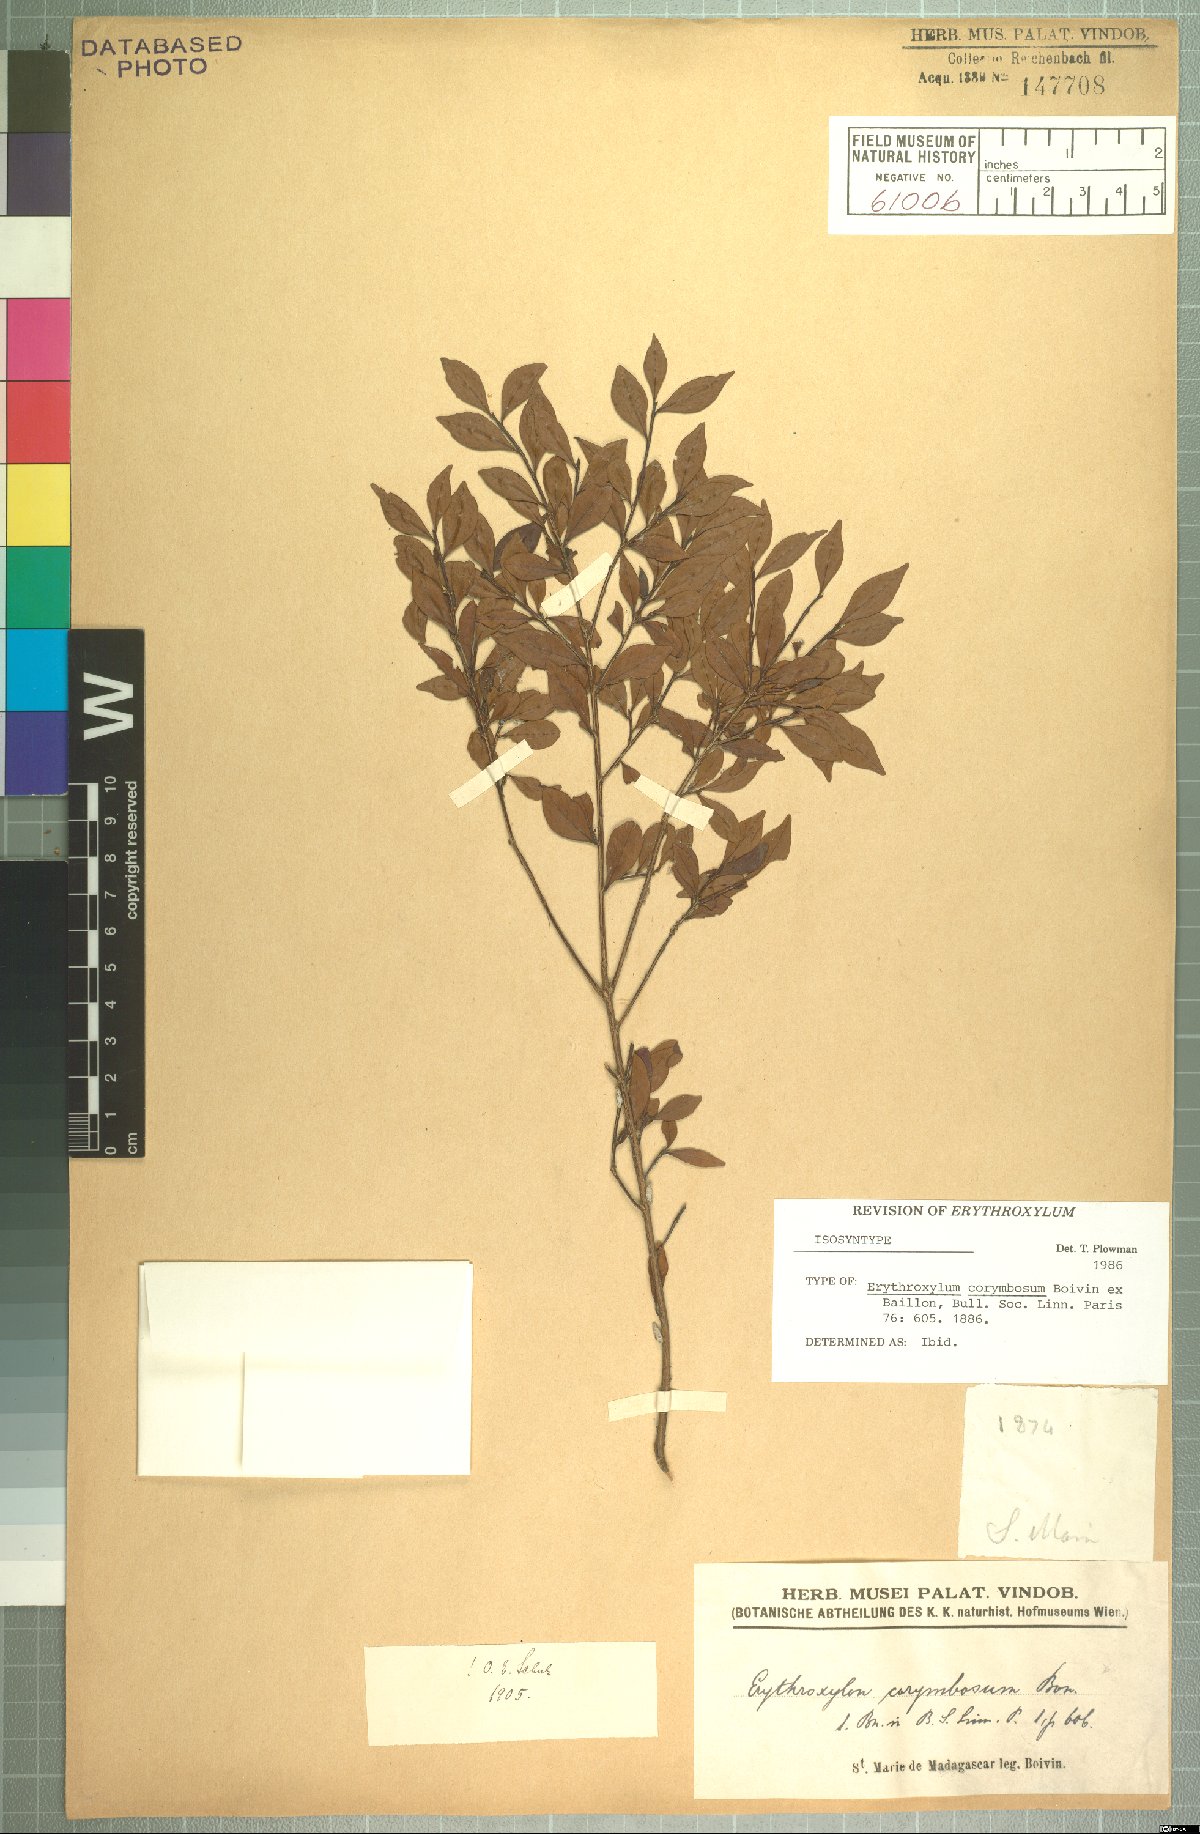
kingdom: Plantae
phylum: Tracheophyta
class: Magnoliopsida
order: Malpighiales
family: Erythroxylaceae
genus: Erythroxylum
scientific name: Erythroxylum corymbosum
